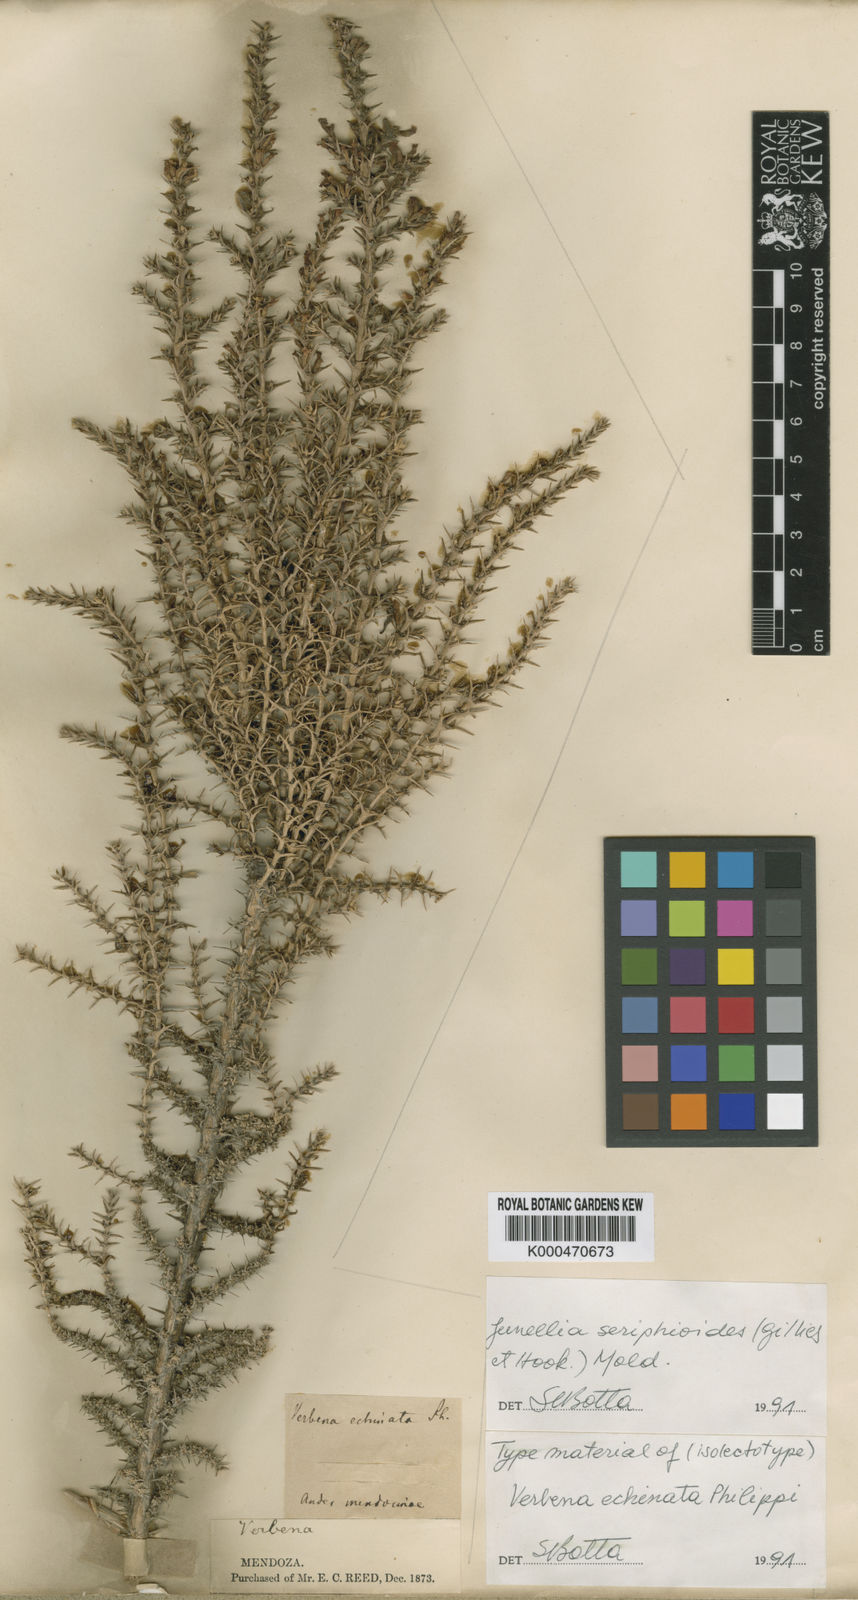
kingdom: Plantae
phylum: Tracheophyta
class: Magnoliopsida
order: Lamiales
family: Verbenaceae
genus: Junellia
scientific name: Junellia seriphioides
